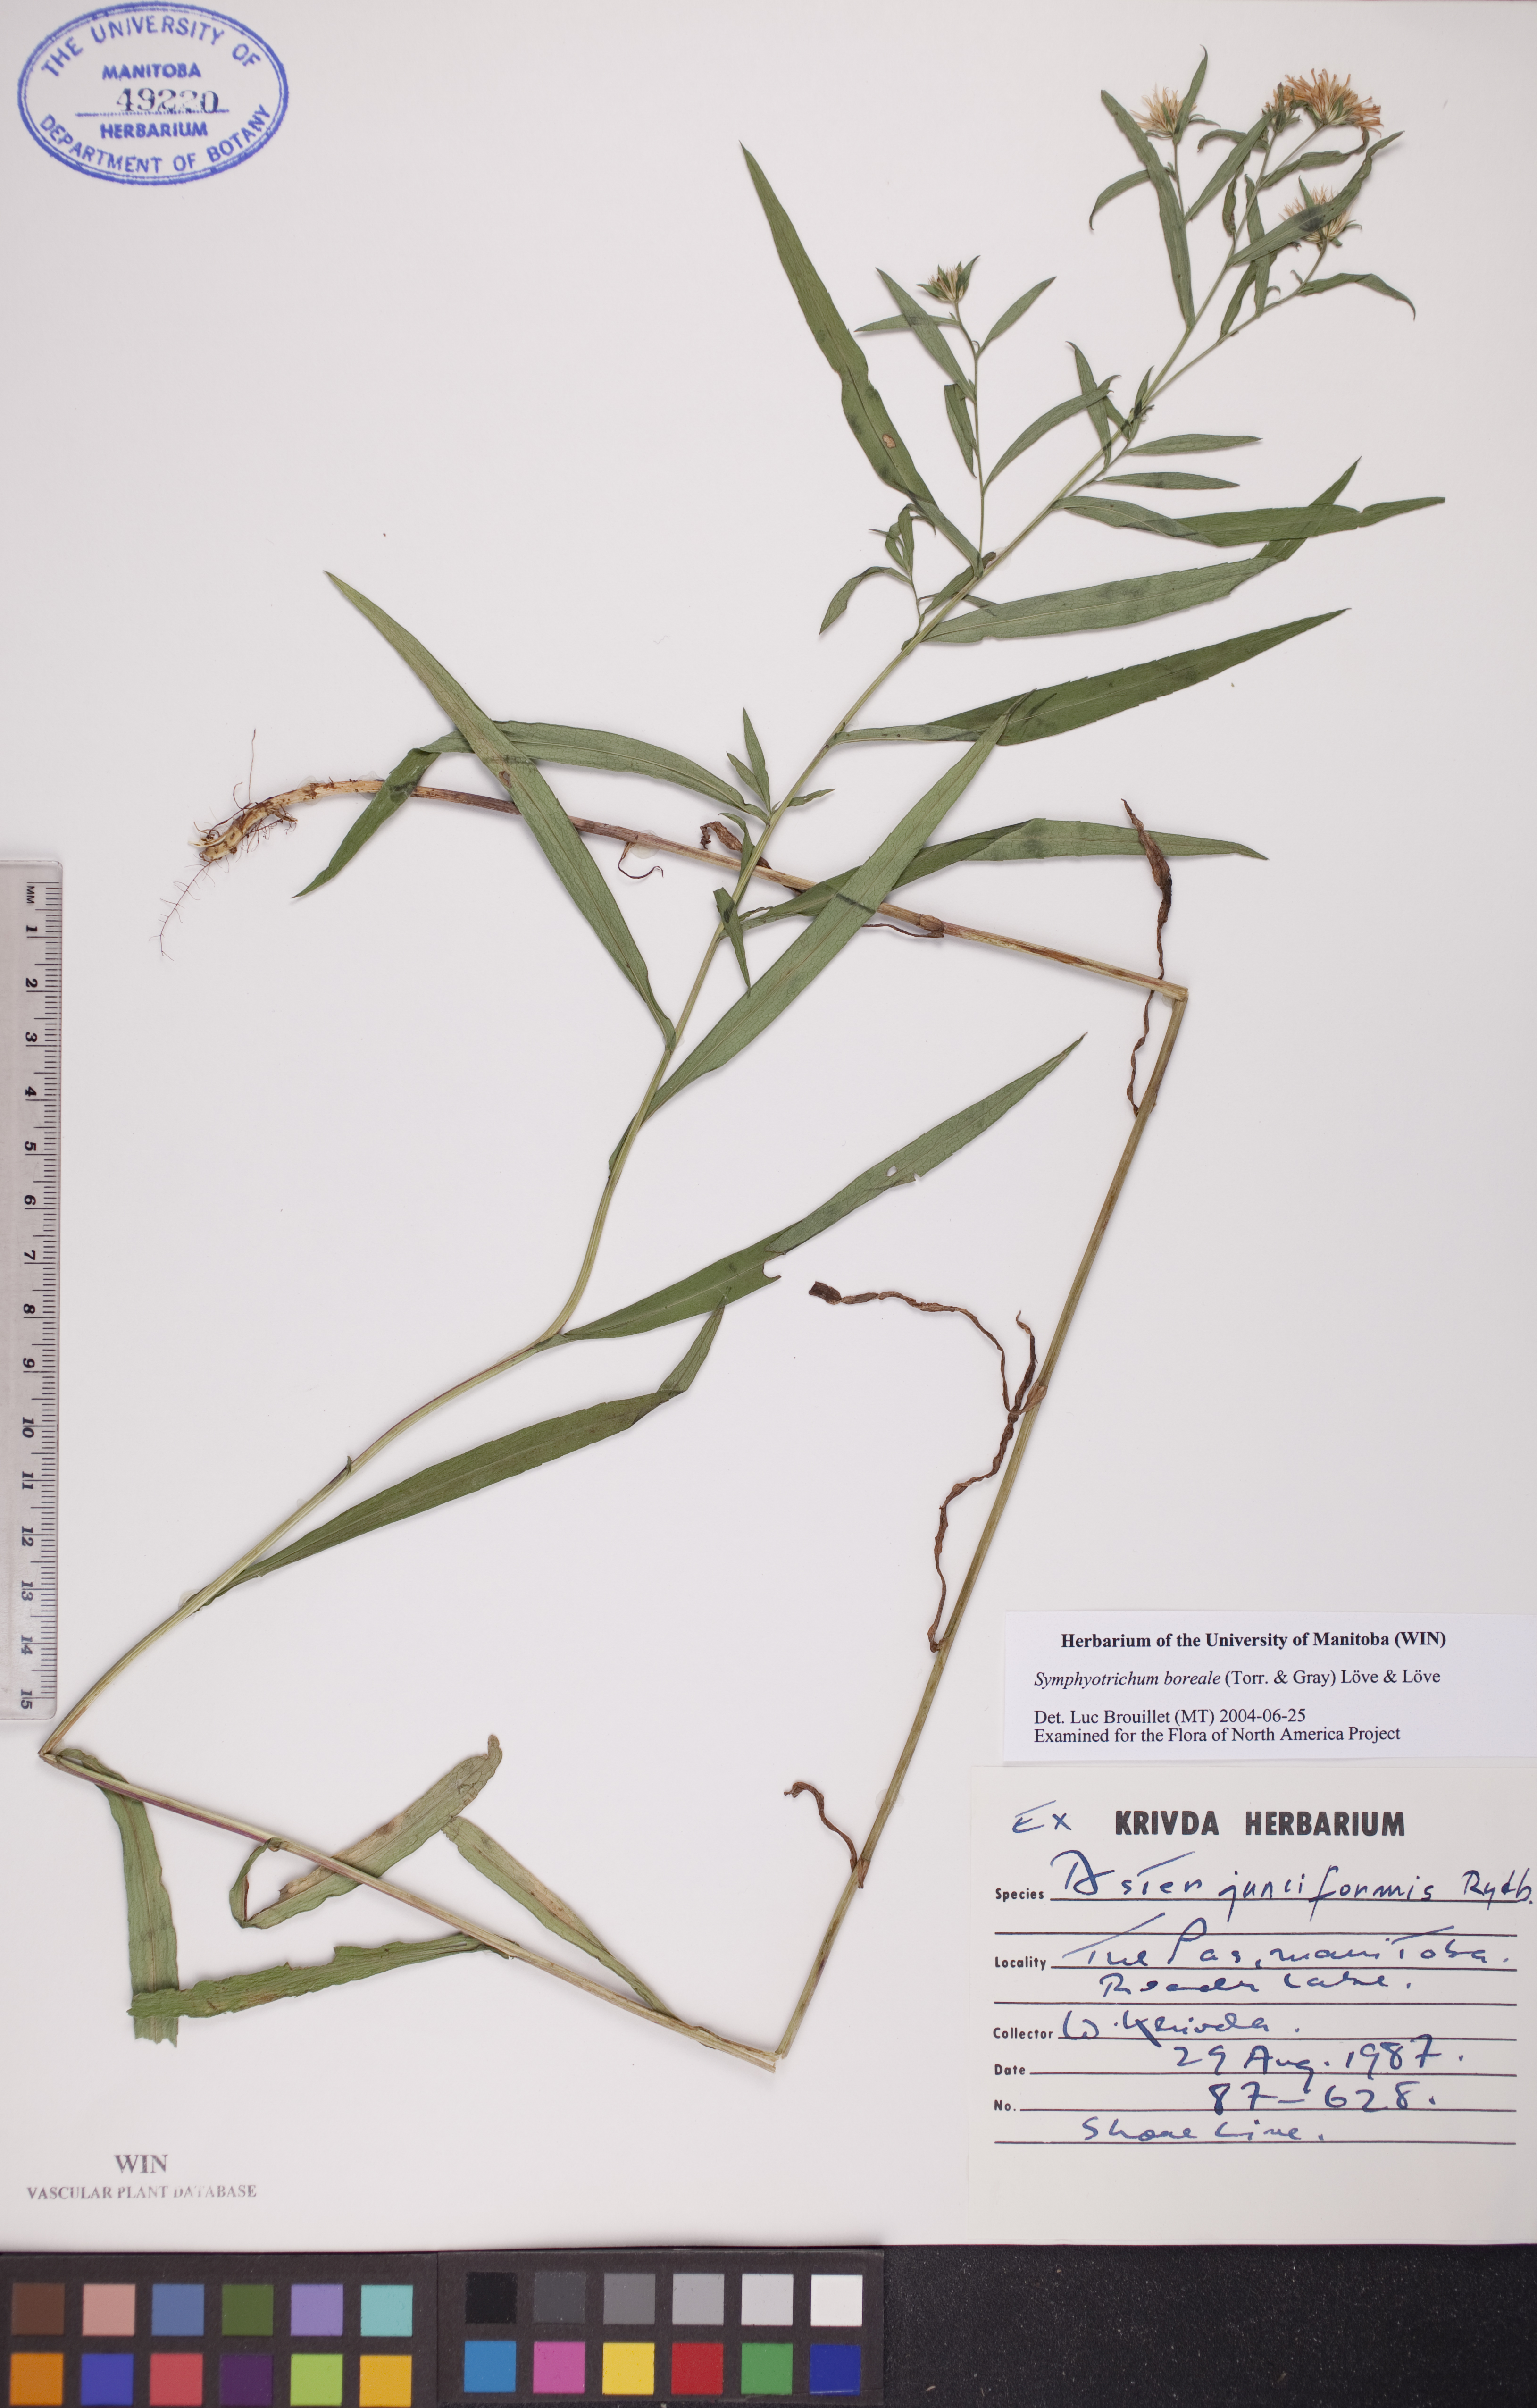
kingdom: Plantae
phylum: Tracheophyta
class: Magnoliopsida
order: Asterales
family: Asteraceae
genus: Symphyotrichum
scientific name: Symphyotrichum boreale
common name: Northern bog aster
